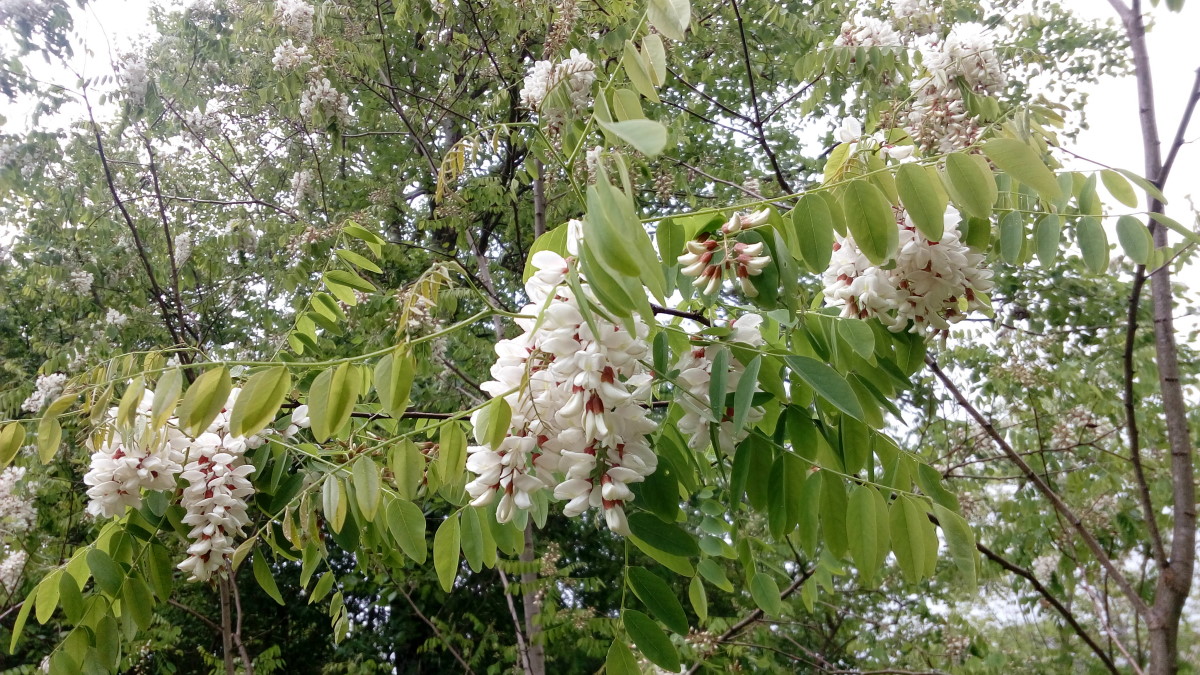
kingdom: Plantae
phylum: Tracheophyta
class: Magnoliopsida
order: Fabales
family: Fabaceae
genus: Robinia
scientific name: Robinia pseudoacacia
